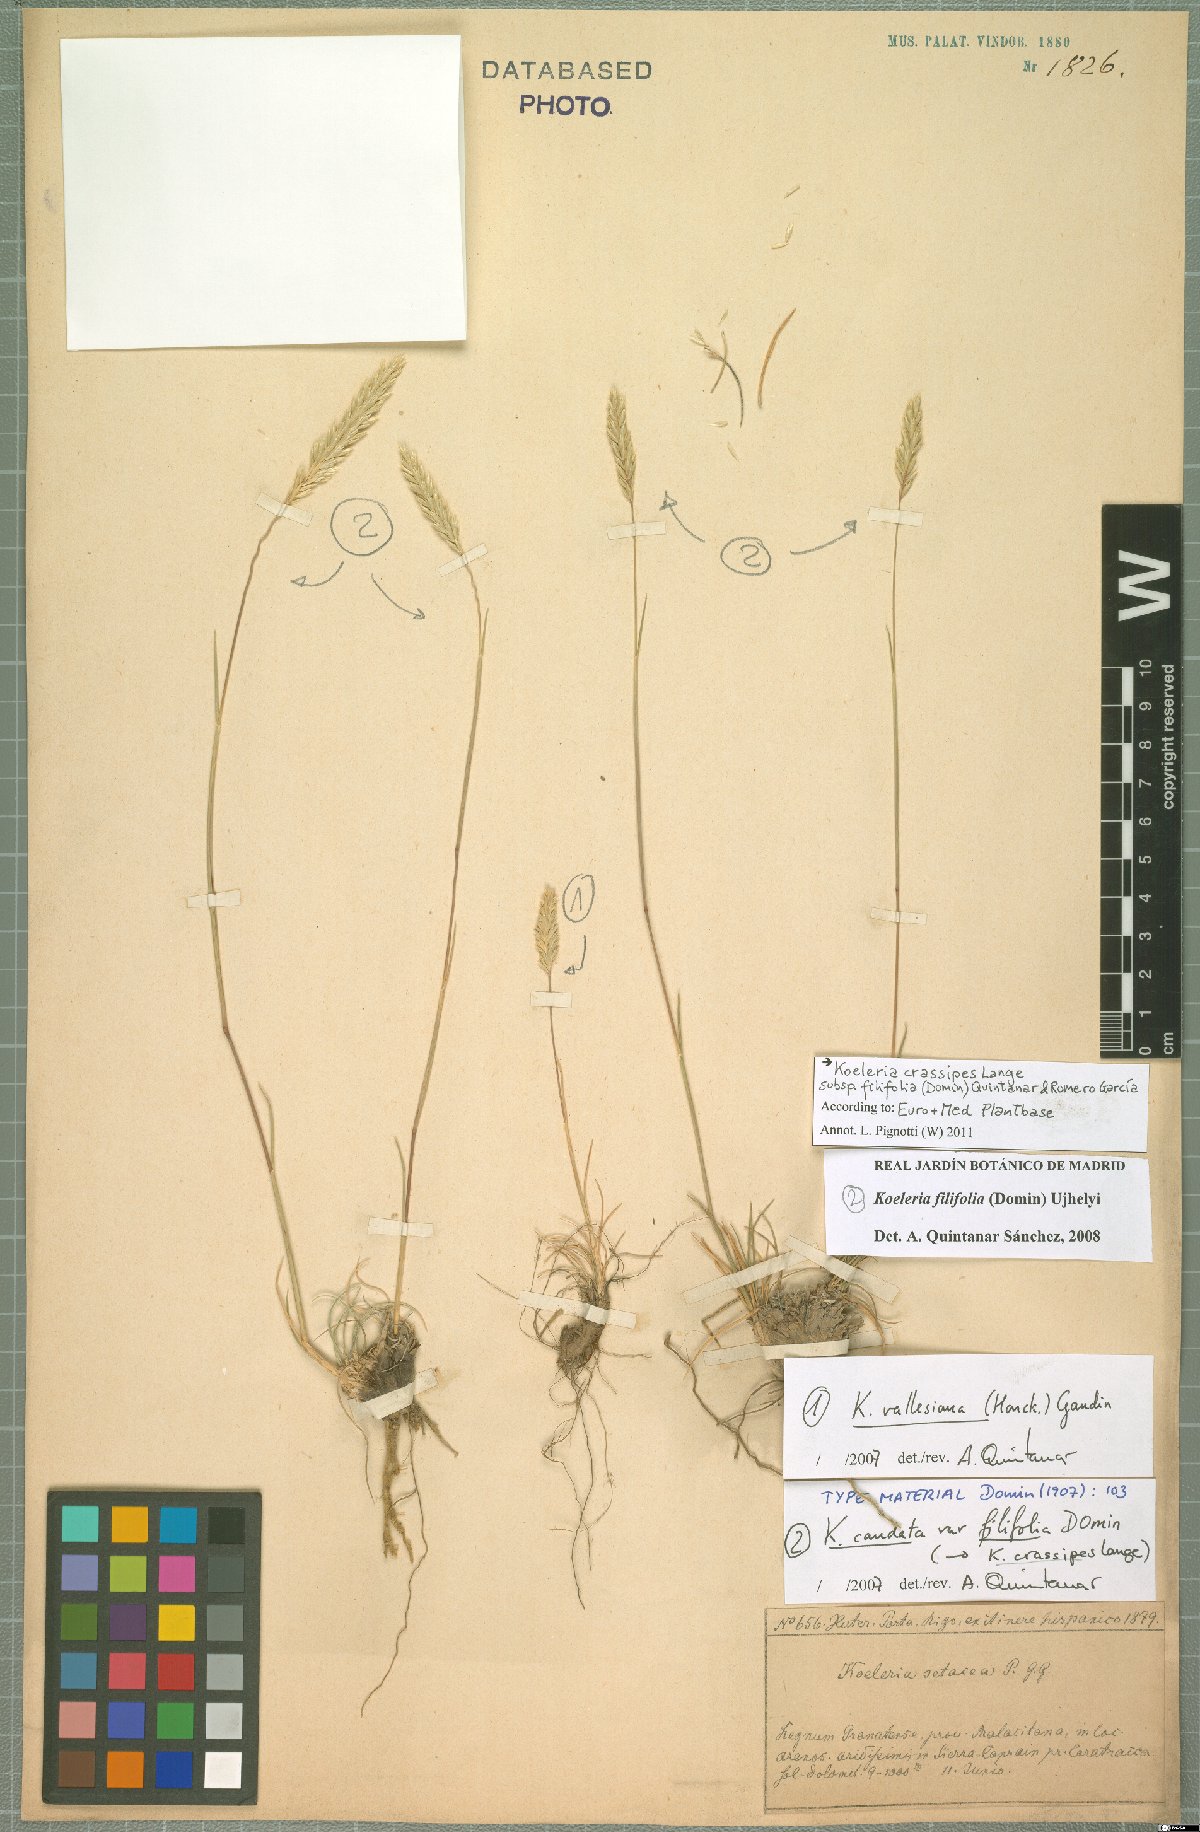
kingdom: Plantae
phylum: Tracheophyta
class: Liliopsida
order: Poales
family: Poaceae
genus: Koeleria
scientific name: Koeleria crassipes
